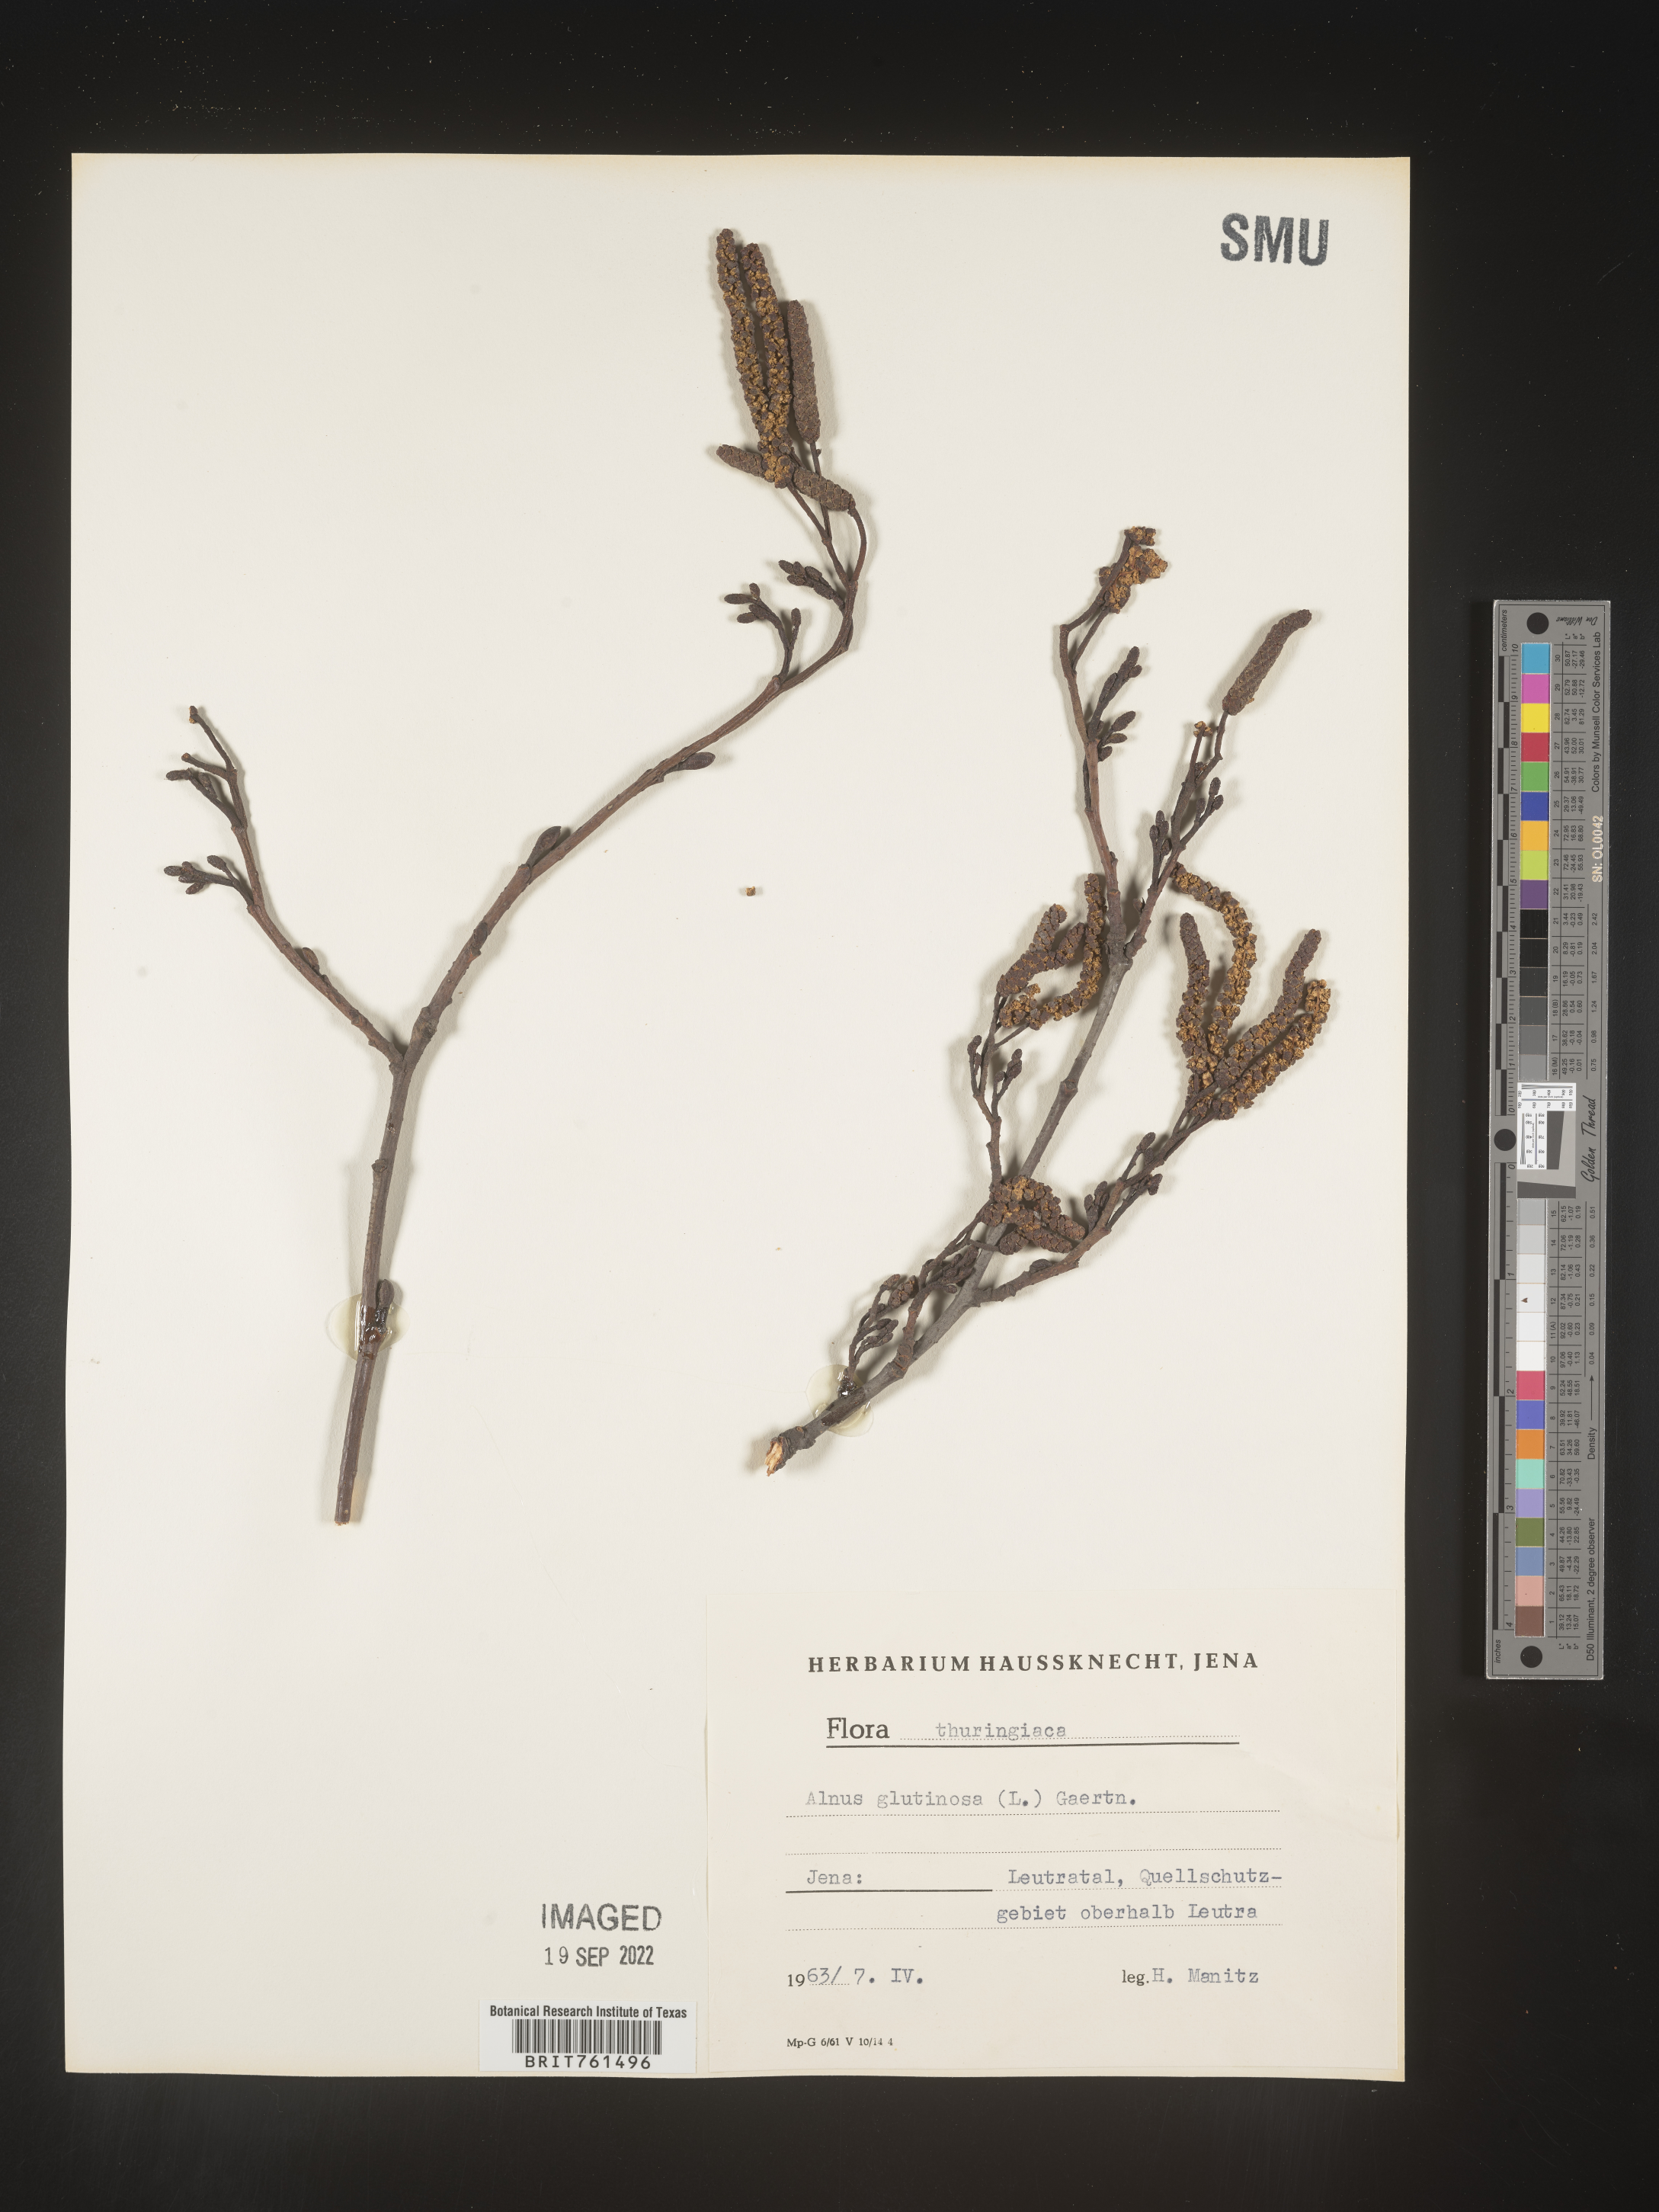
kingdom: Plantae
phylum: Tracheophyta
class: Magnoliopsida
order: Fagales
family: Betulaceae
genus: Alnus
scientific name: Alnus
